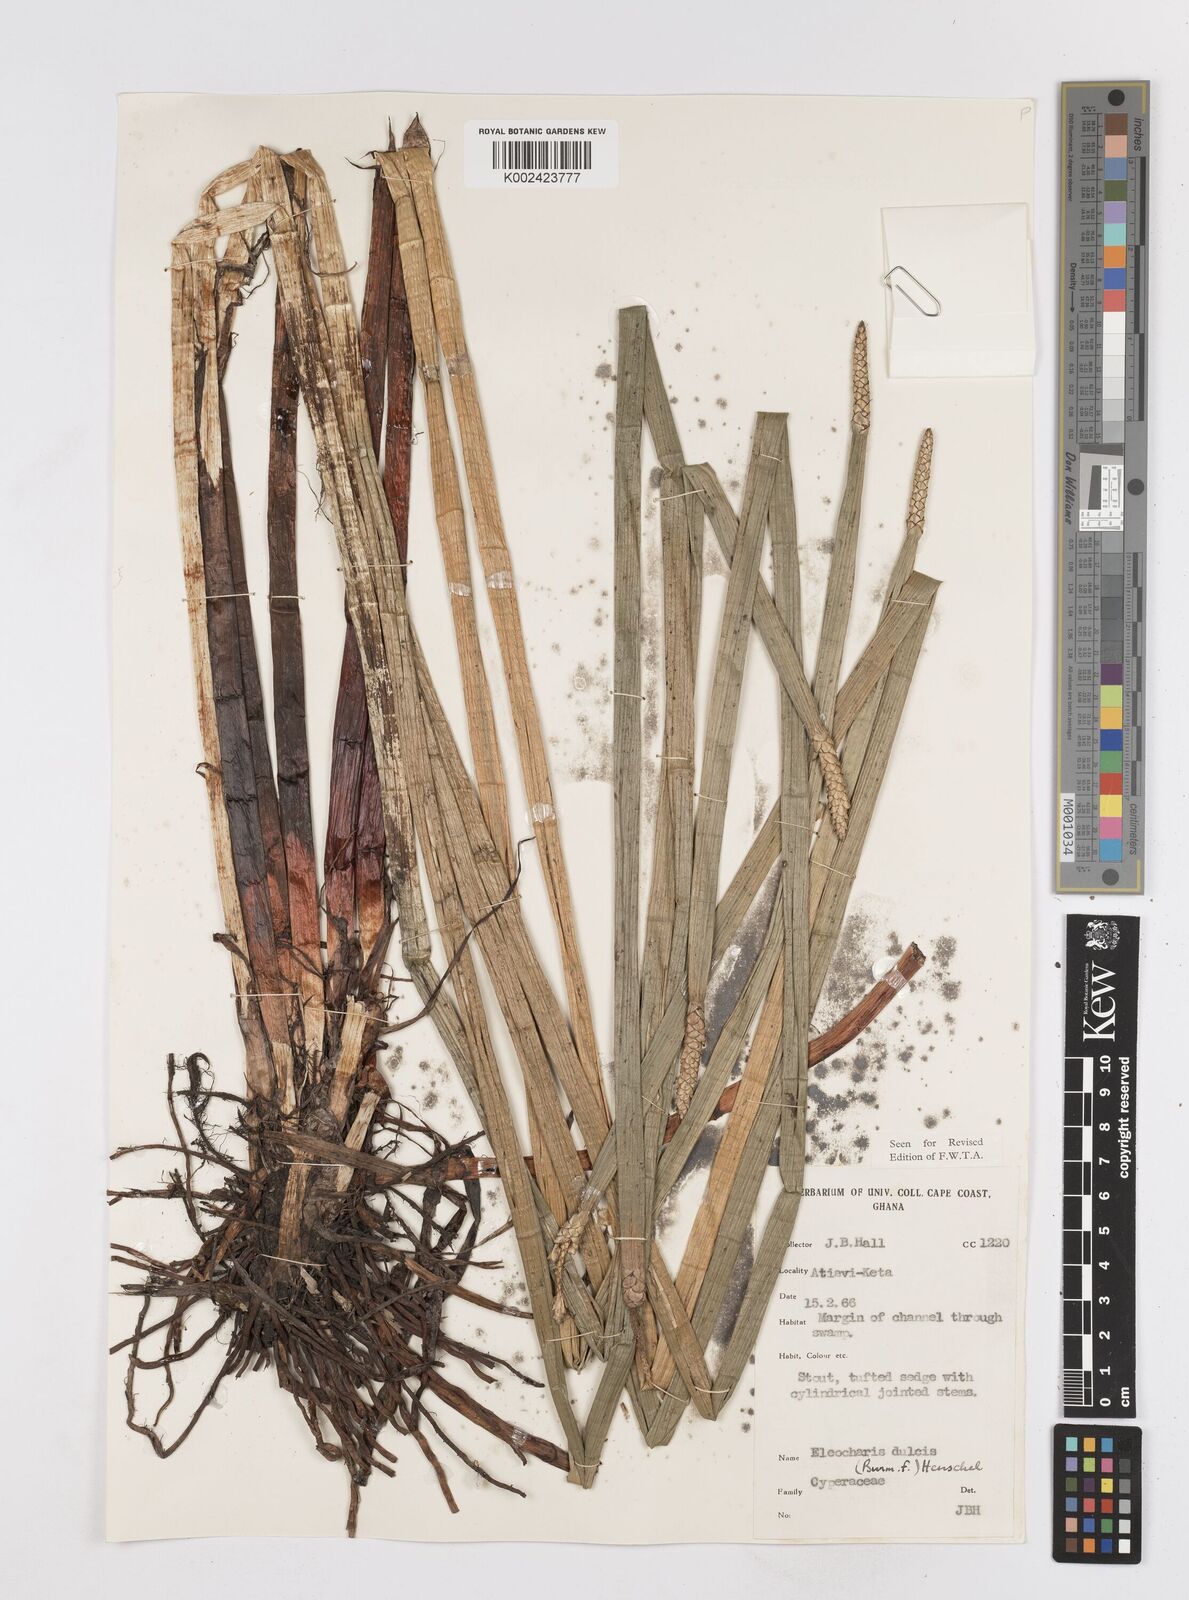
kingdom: Plantae
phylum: Tracheophyta
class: Liliopsida
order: Poales
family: Cyperaceae
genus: Eleocharis
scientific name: Eleocharis dulcis
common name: Chinese water chestnut
